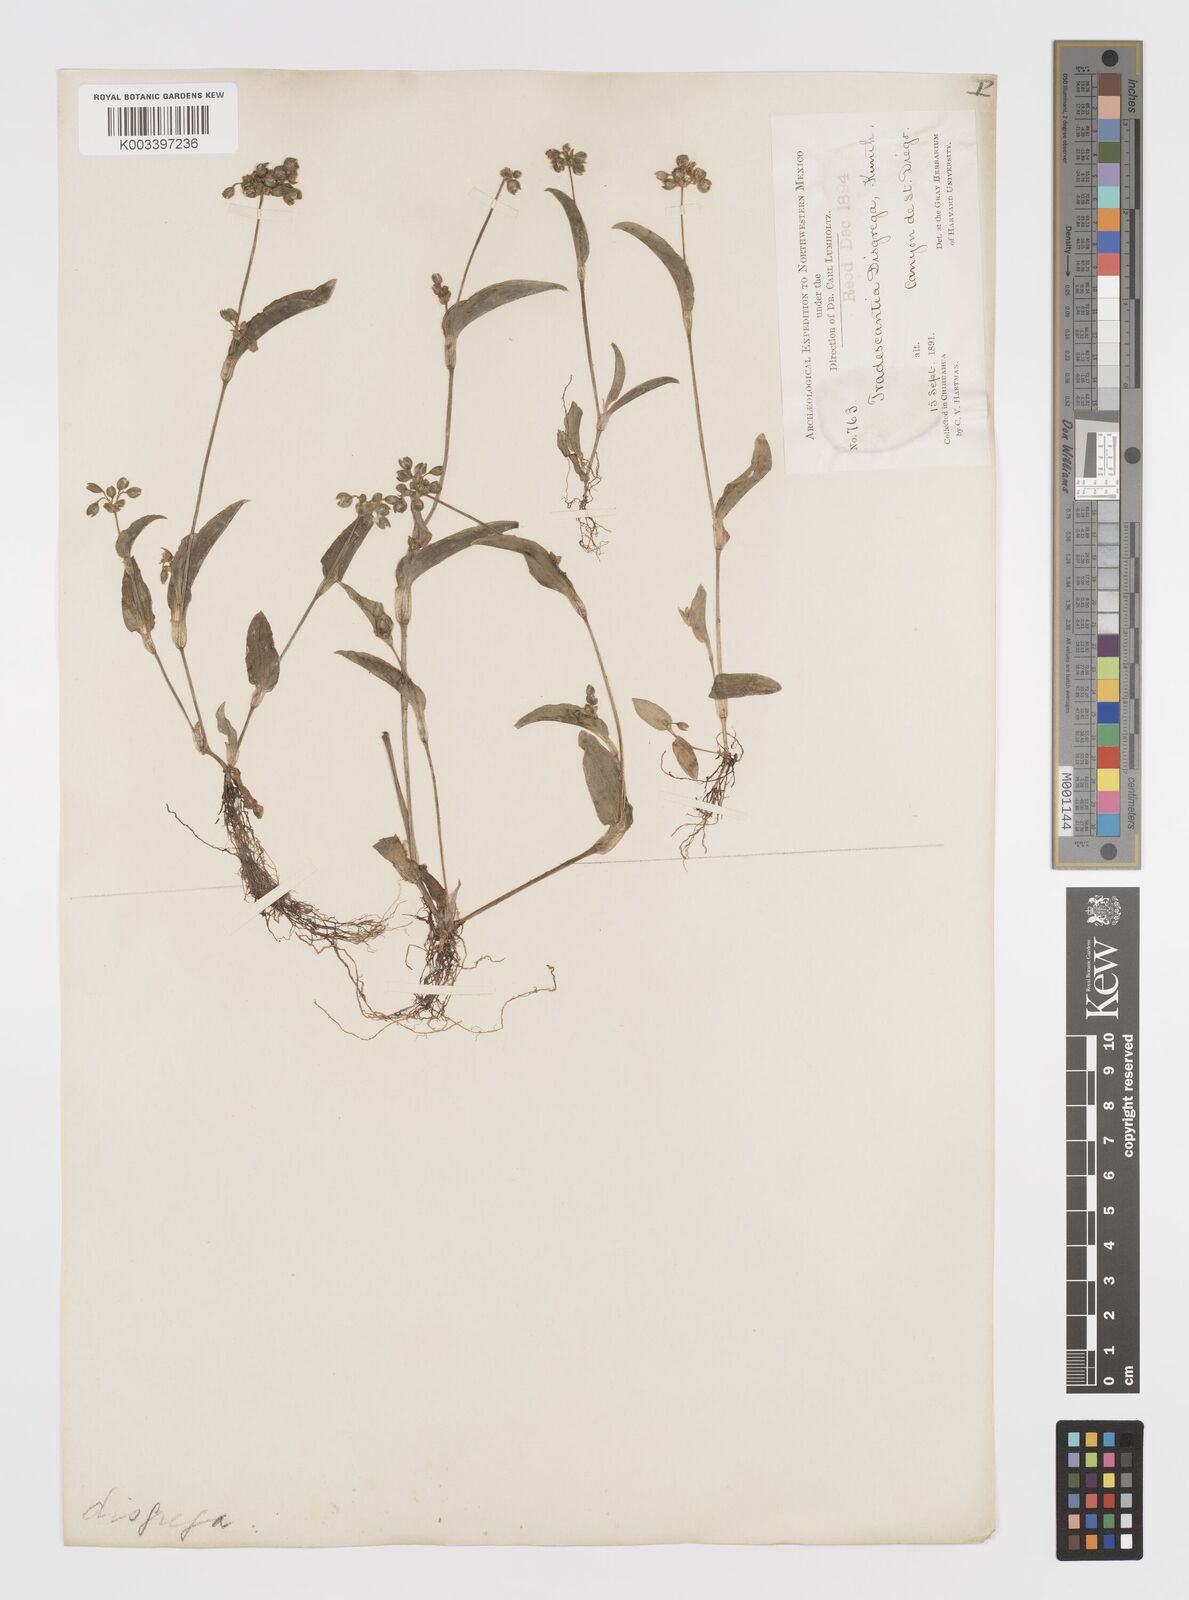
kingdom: Plantae
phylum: Tracheophyta
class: Liliopsida
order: Commelinales
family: Commelinaceae
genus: Callisia
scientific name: Callisia disgrega
